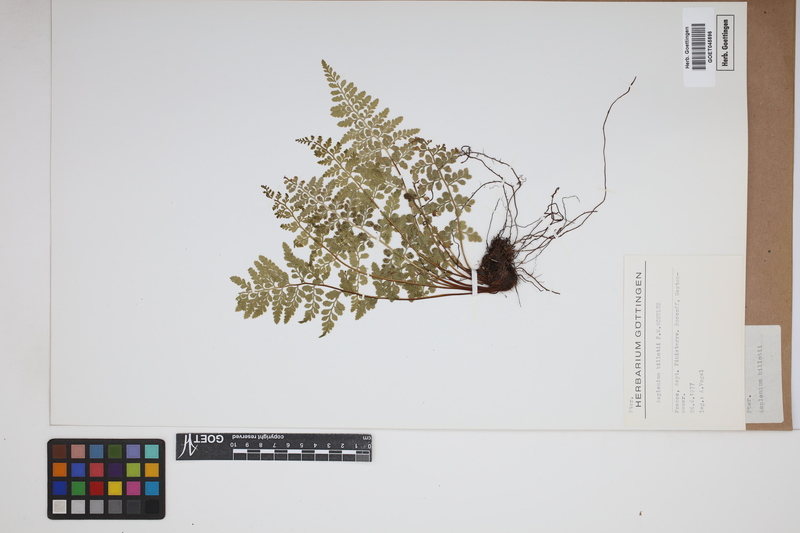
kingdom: Plantae
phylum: Tracheophyta
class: Polypodiopsida
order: Polypodiales
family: Aspleniaceae
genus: Asplenium
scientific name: Asplenium obovatum
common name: Lanceolate spleenwort
